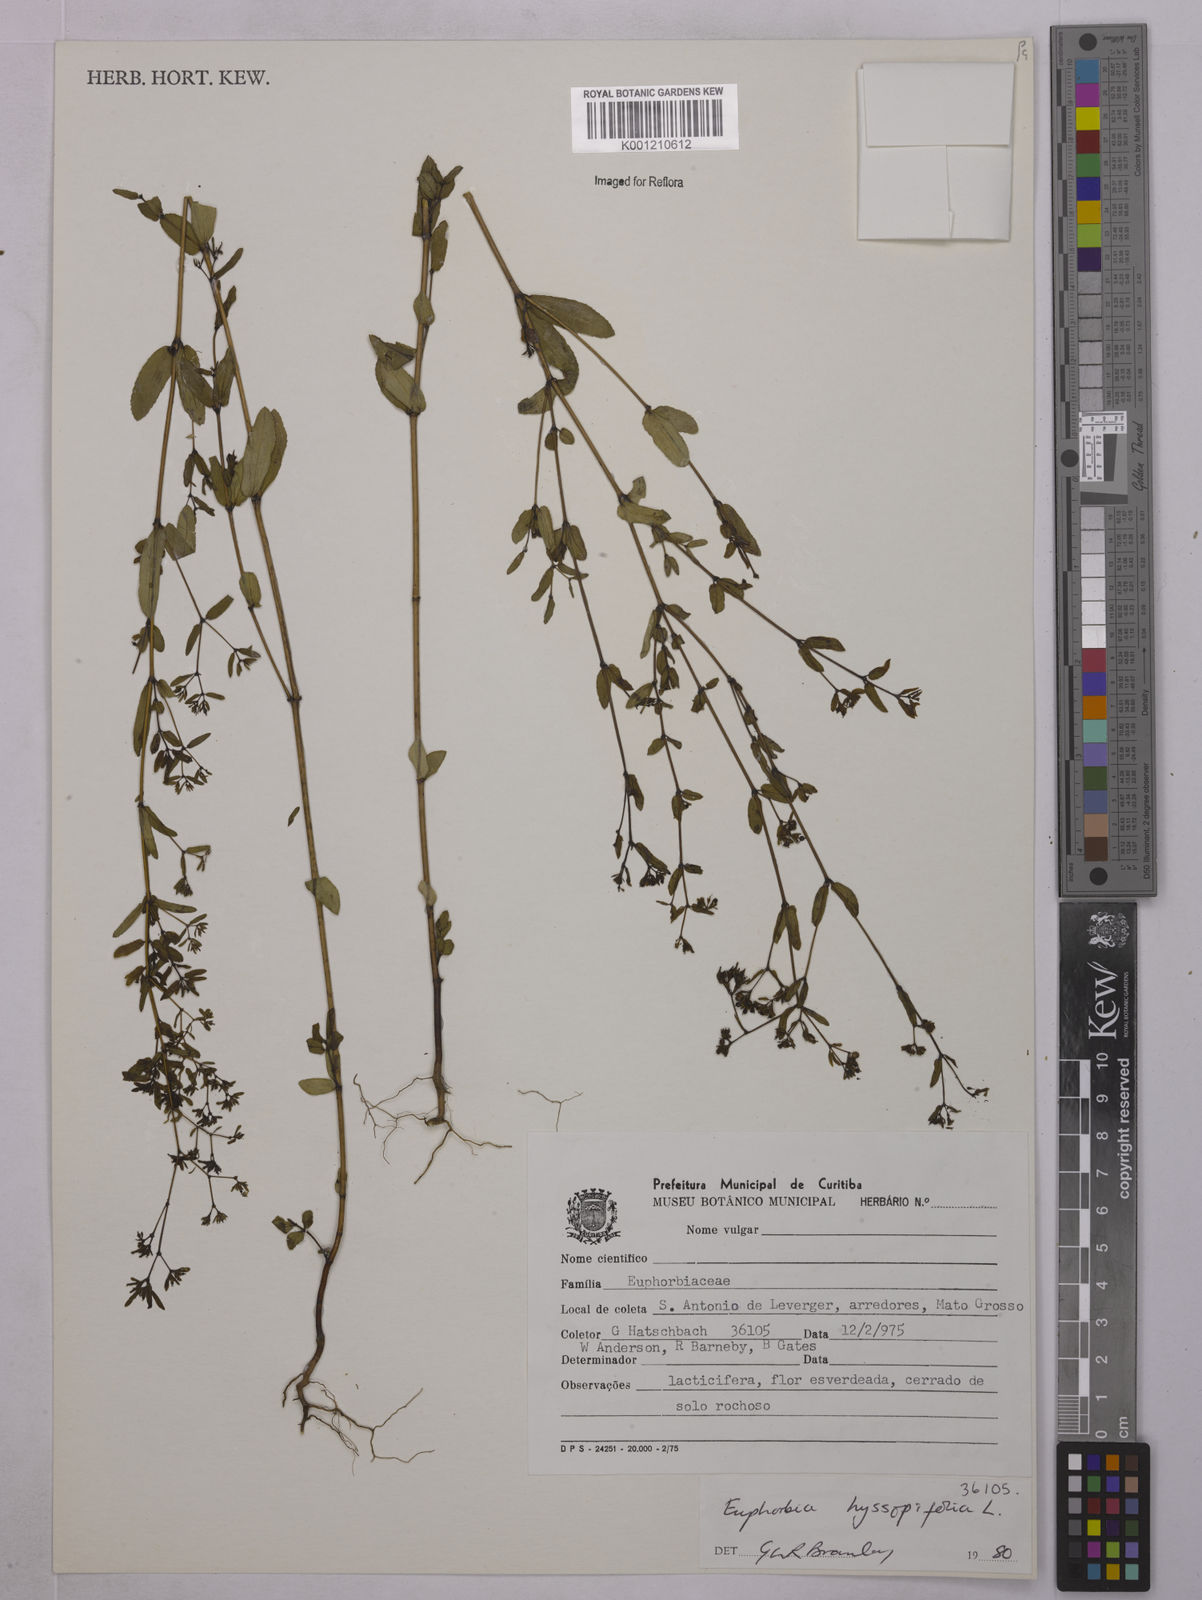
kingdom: Plantae
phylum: Tracheophyta
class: Magnoliopsida
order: Malpighiales
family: Euphorbiaceae
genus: Euphorbia
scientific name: Euphorbia hyssopifolia
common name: Hyssopleaf sandmat
